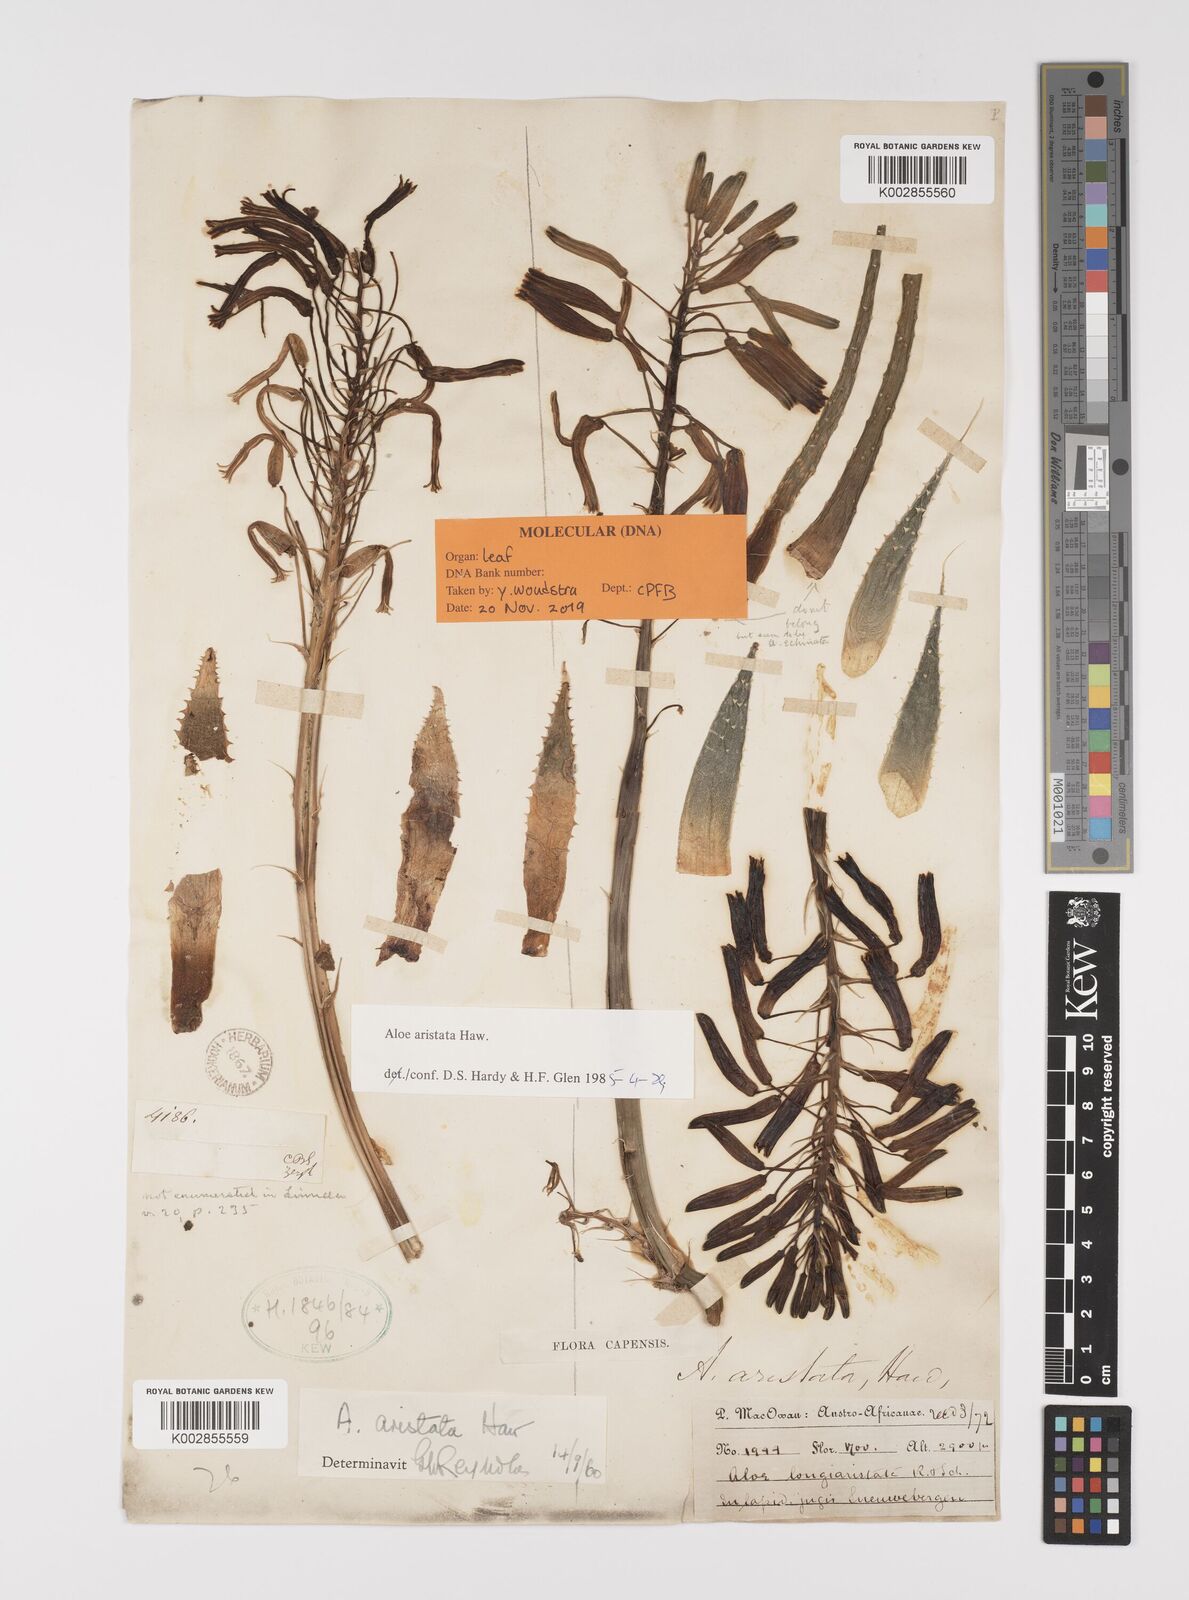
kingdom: Plantae
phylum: Tracheophyta
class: Liliopsida
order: Asparagales
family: Asphodelaceae
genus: Aristaloe
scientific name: Aristaloe aristata
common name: Guinea-fowl aloe
